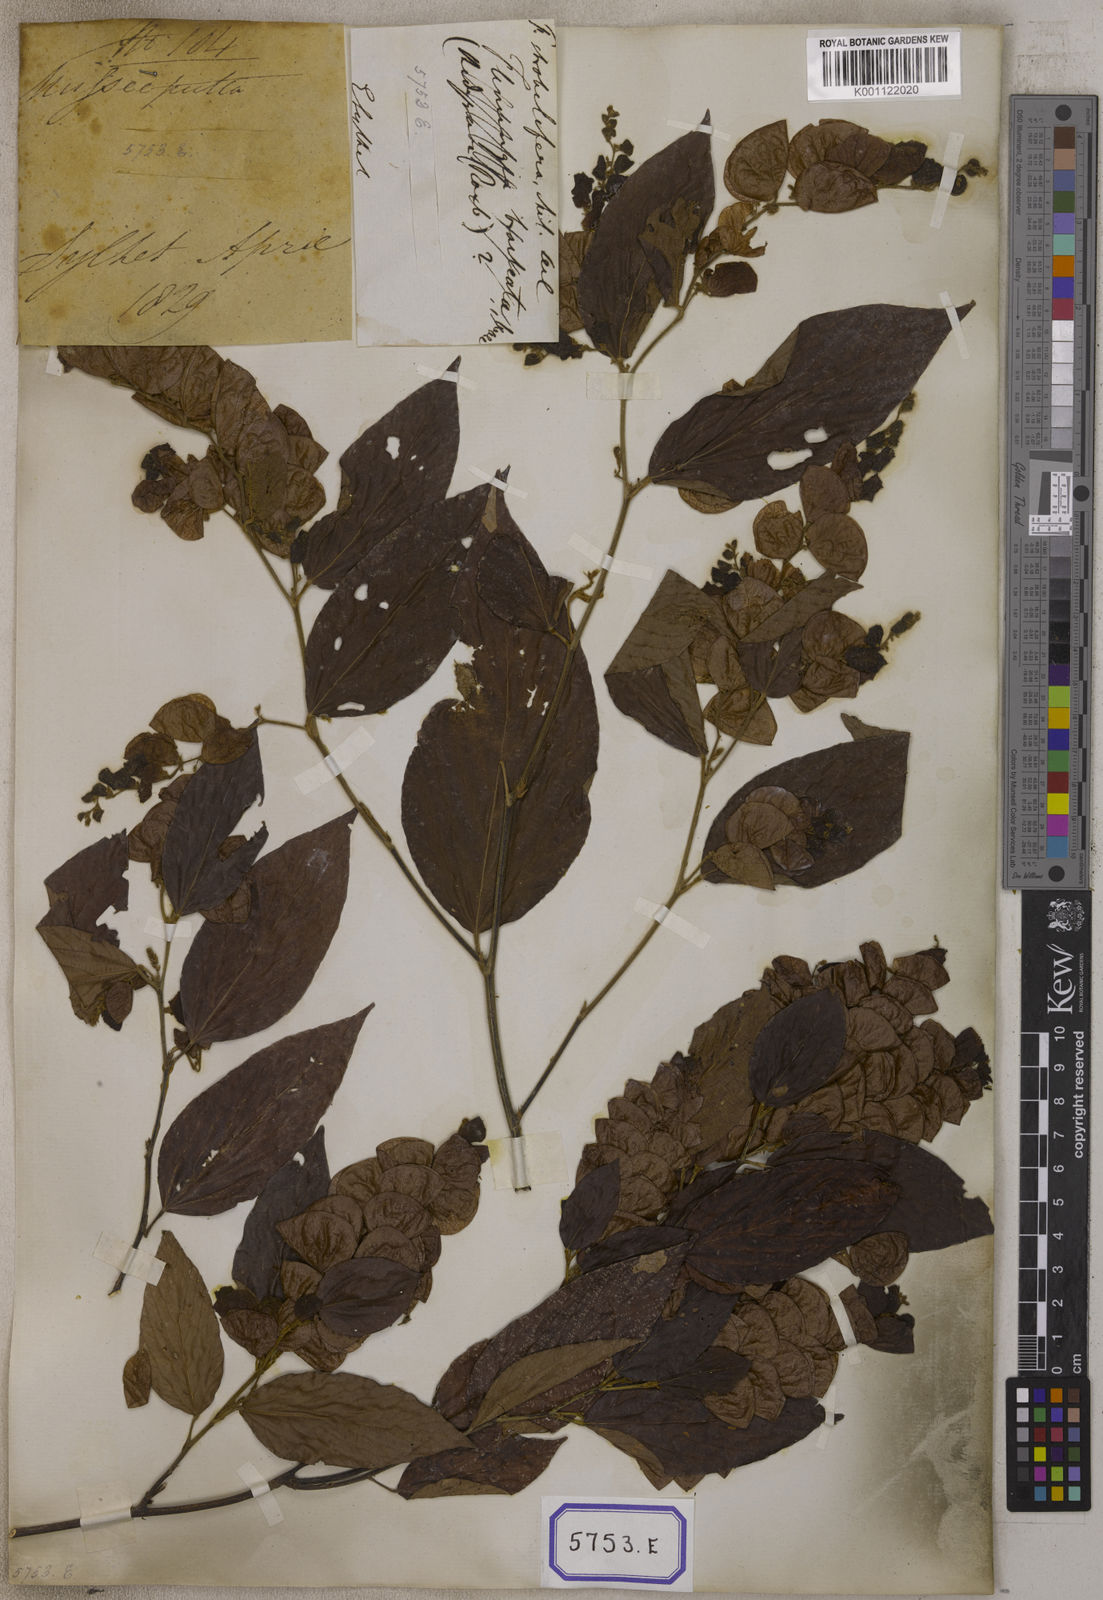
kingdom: Plantae
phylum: Tracheophyta
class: Magnoliopsida
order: Fabales
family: Fabaceae
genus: Flemingia
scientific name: Flemingia strobilifera
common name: Wild hops
